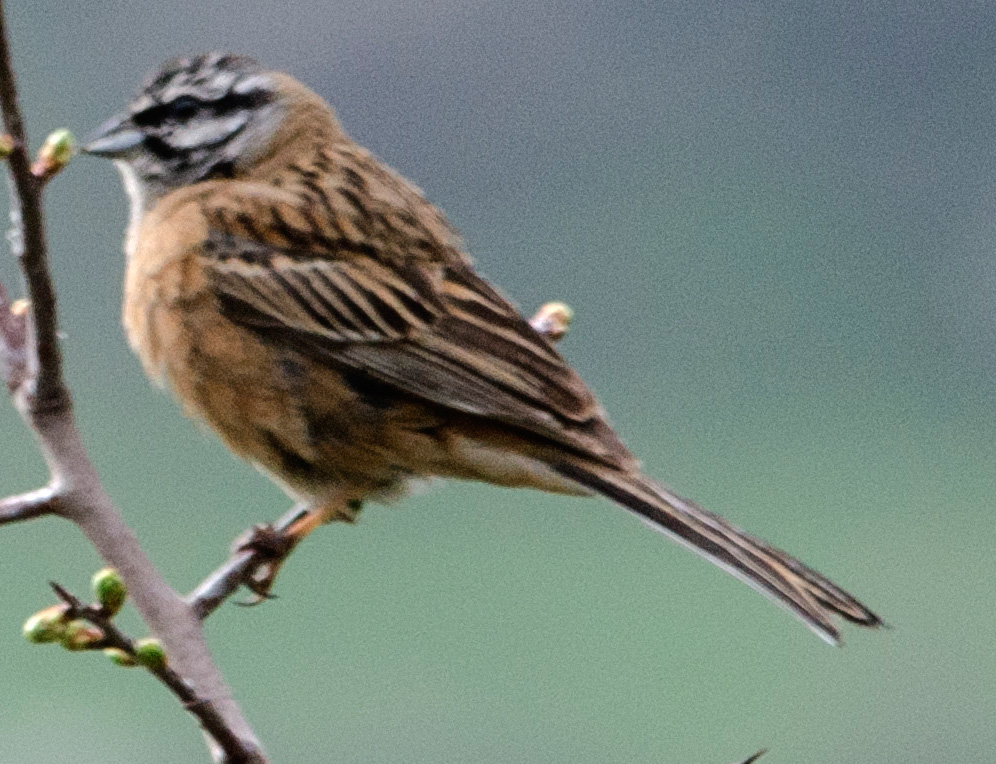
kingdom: Animalia
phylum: Chordata
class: Aves
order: Passeriformes
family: Emberizidae
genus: Emberiza
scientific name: Emberiza cia
